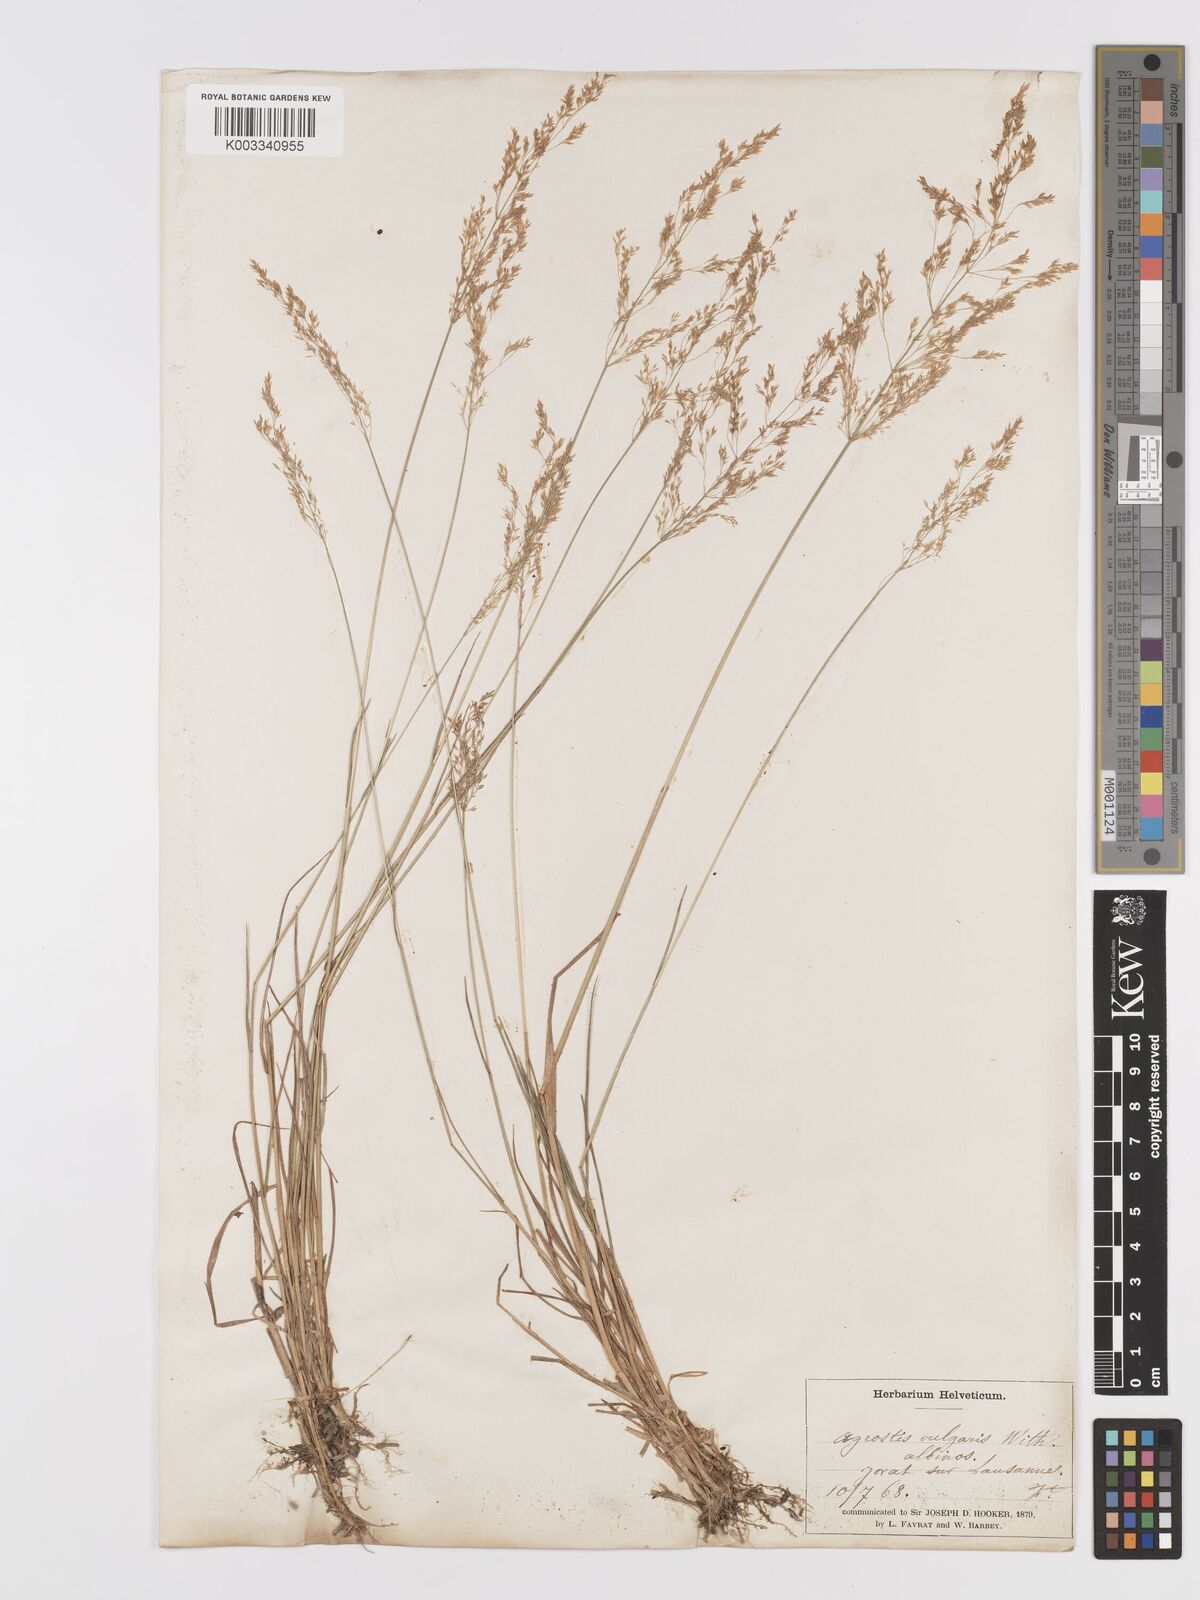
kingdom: Plantae
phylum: Tracheophyta
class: Liliopsida
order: Poales
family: Poaceae
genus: Agrostis
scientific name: Agrostis capillaris
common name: Colonial bentgrass
